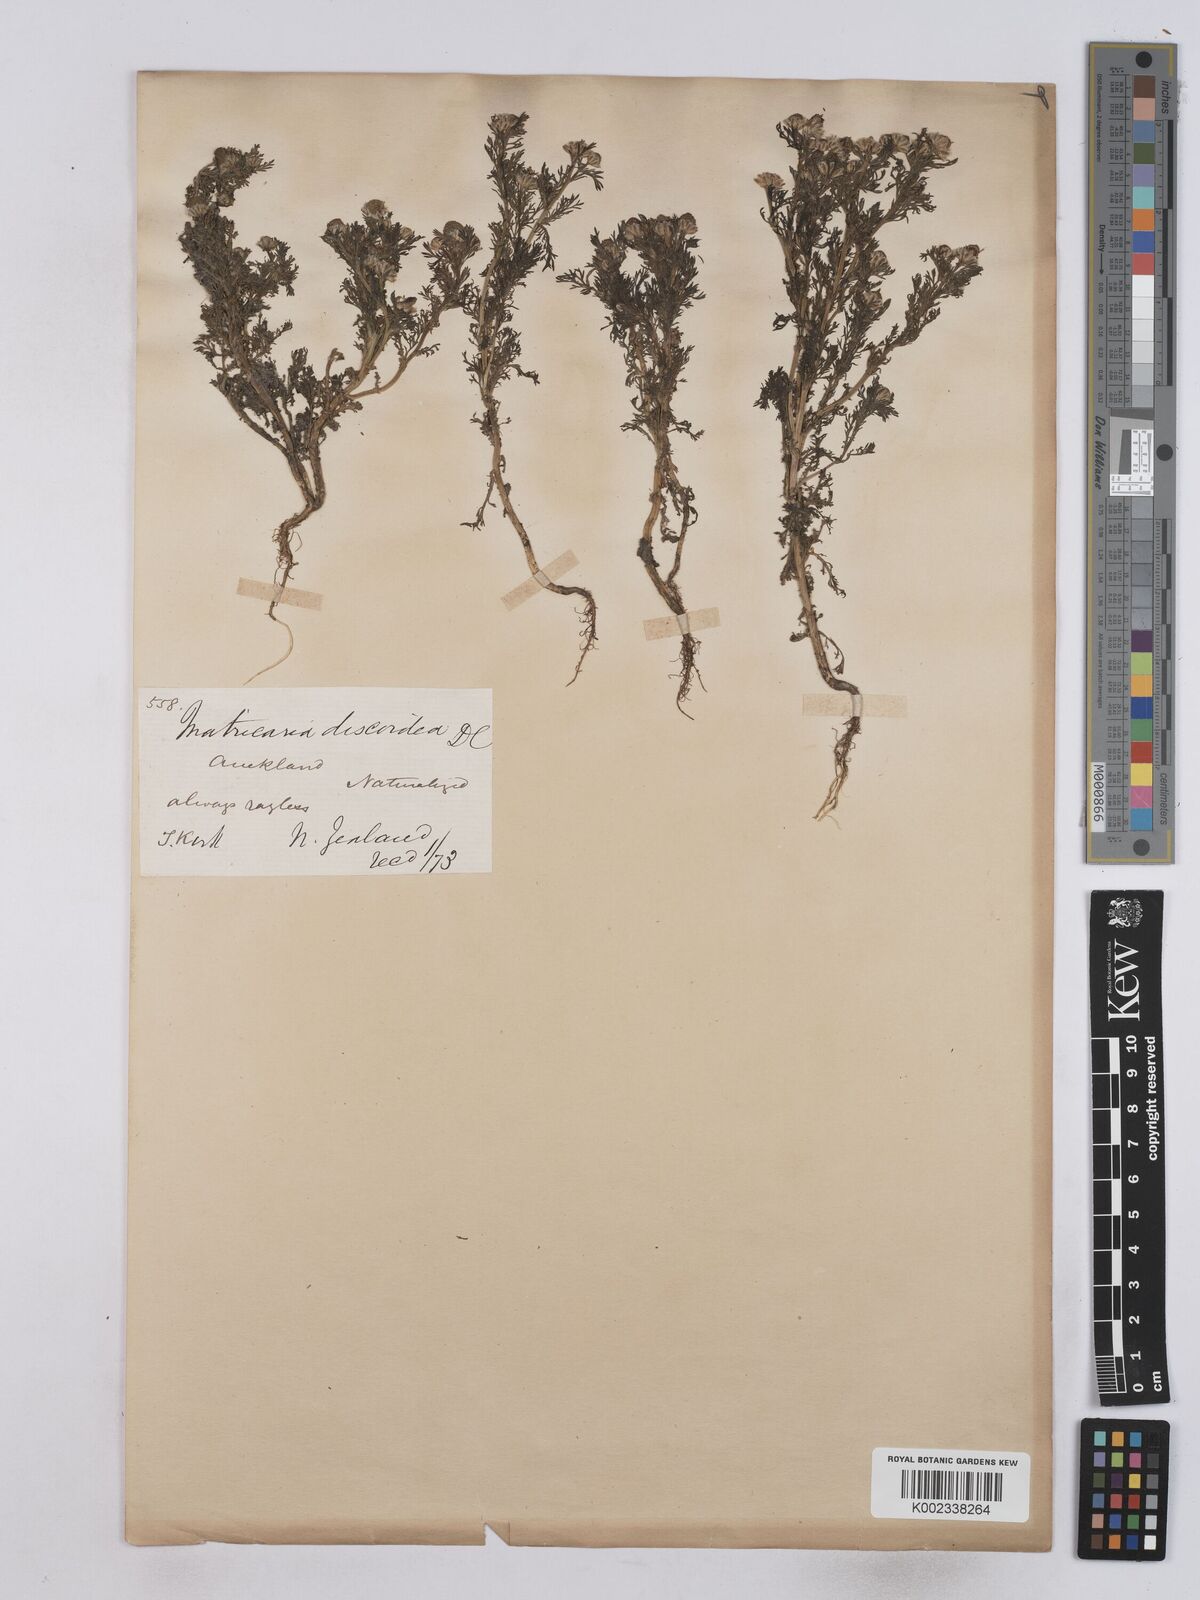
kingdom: Plantae
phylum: Tracheophyta
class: Magnoliopsida
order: Asterales
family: Asteraceae
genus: Matricaria
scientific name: Matricaria discoidea
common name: Disc mayweed
